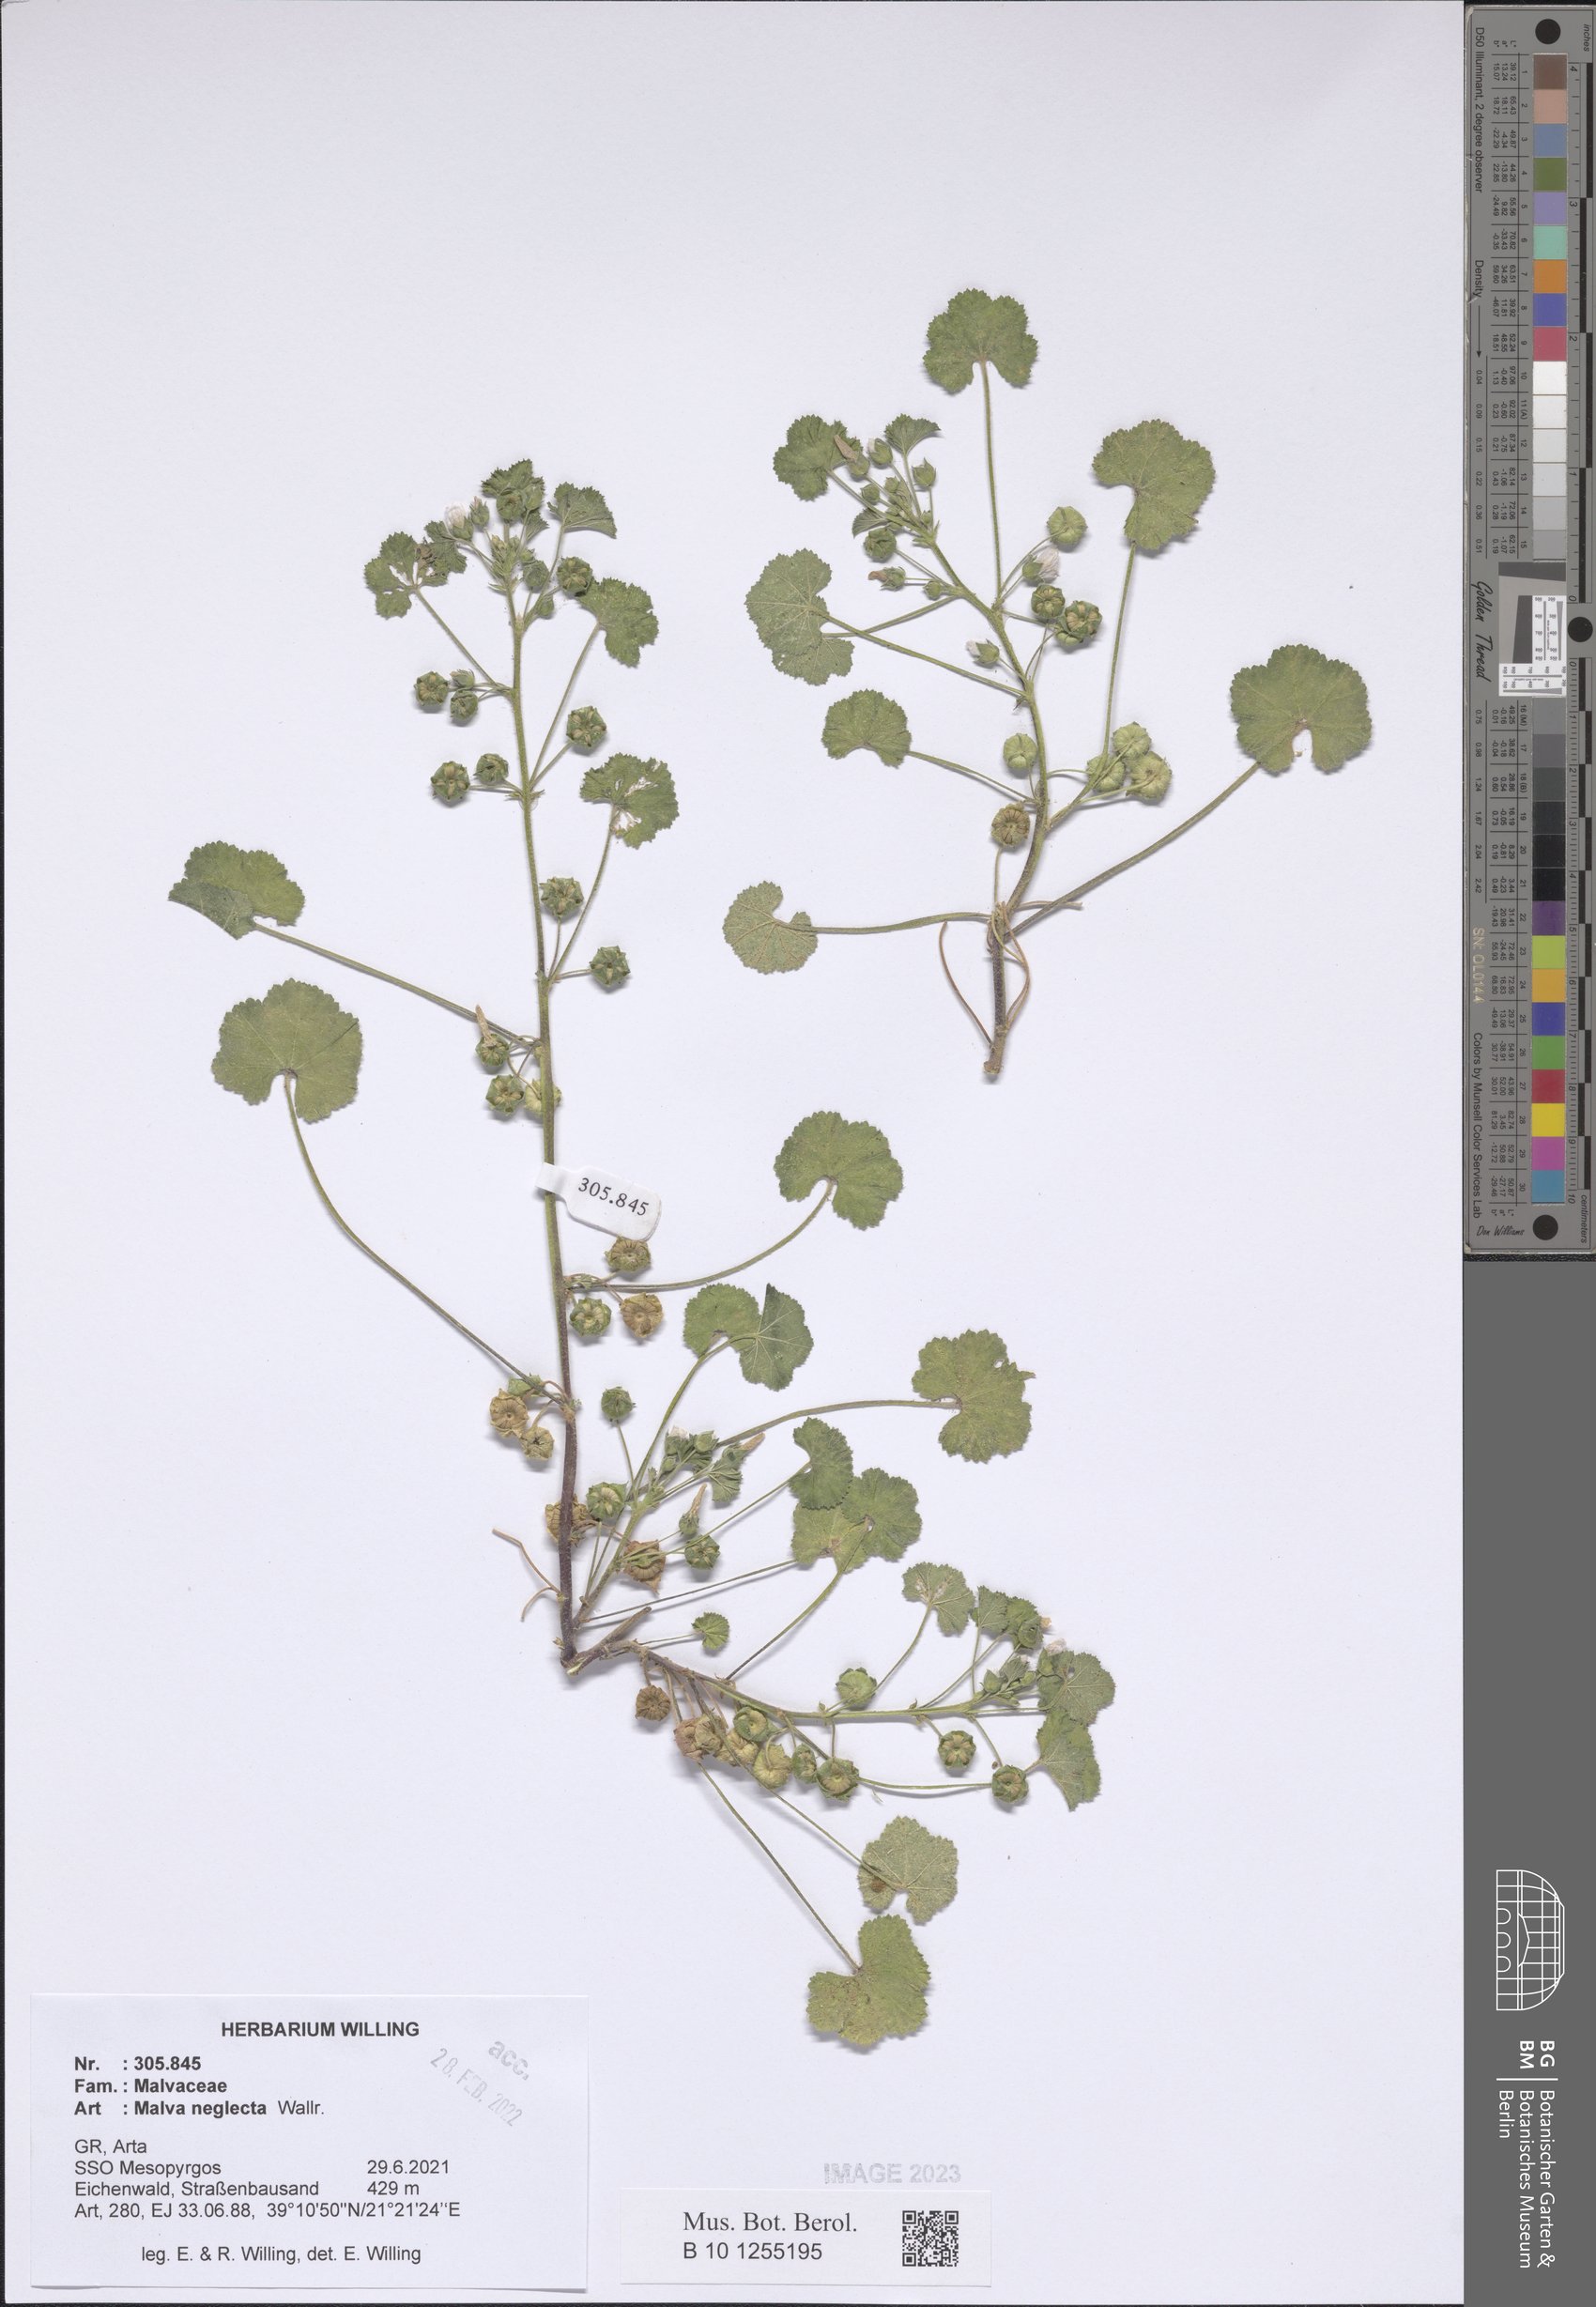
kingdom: Plantae
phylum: Tracheophyta
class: Magnoliopsida
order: Malvales
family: Malvaceae
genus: Malva
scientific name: Malva neglecta
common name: Common mallow
